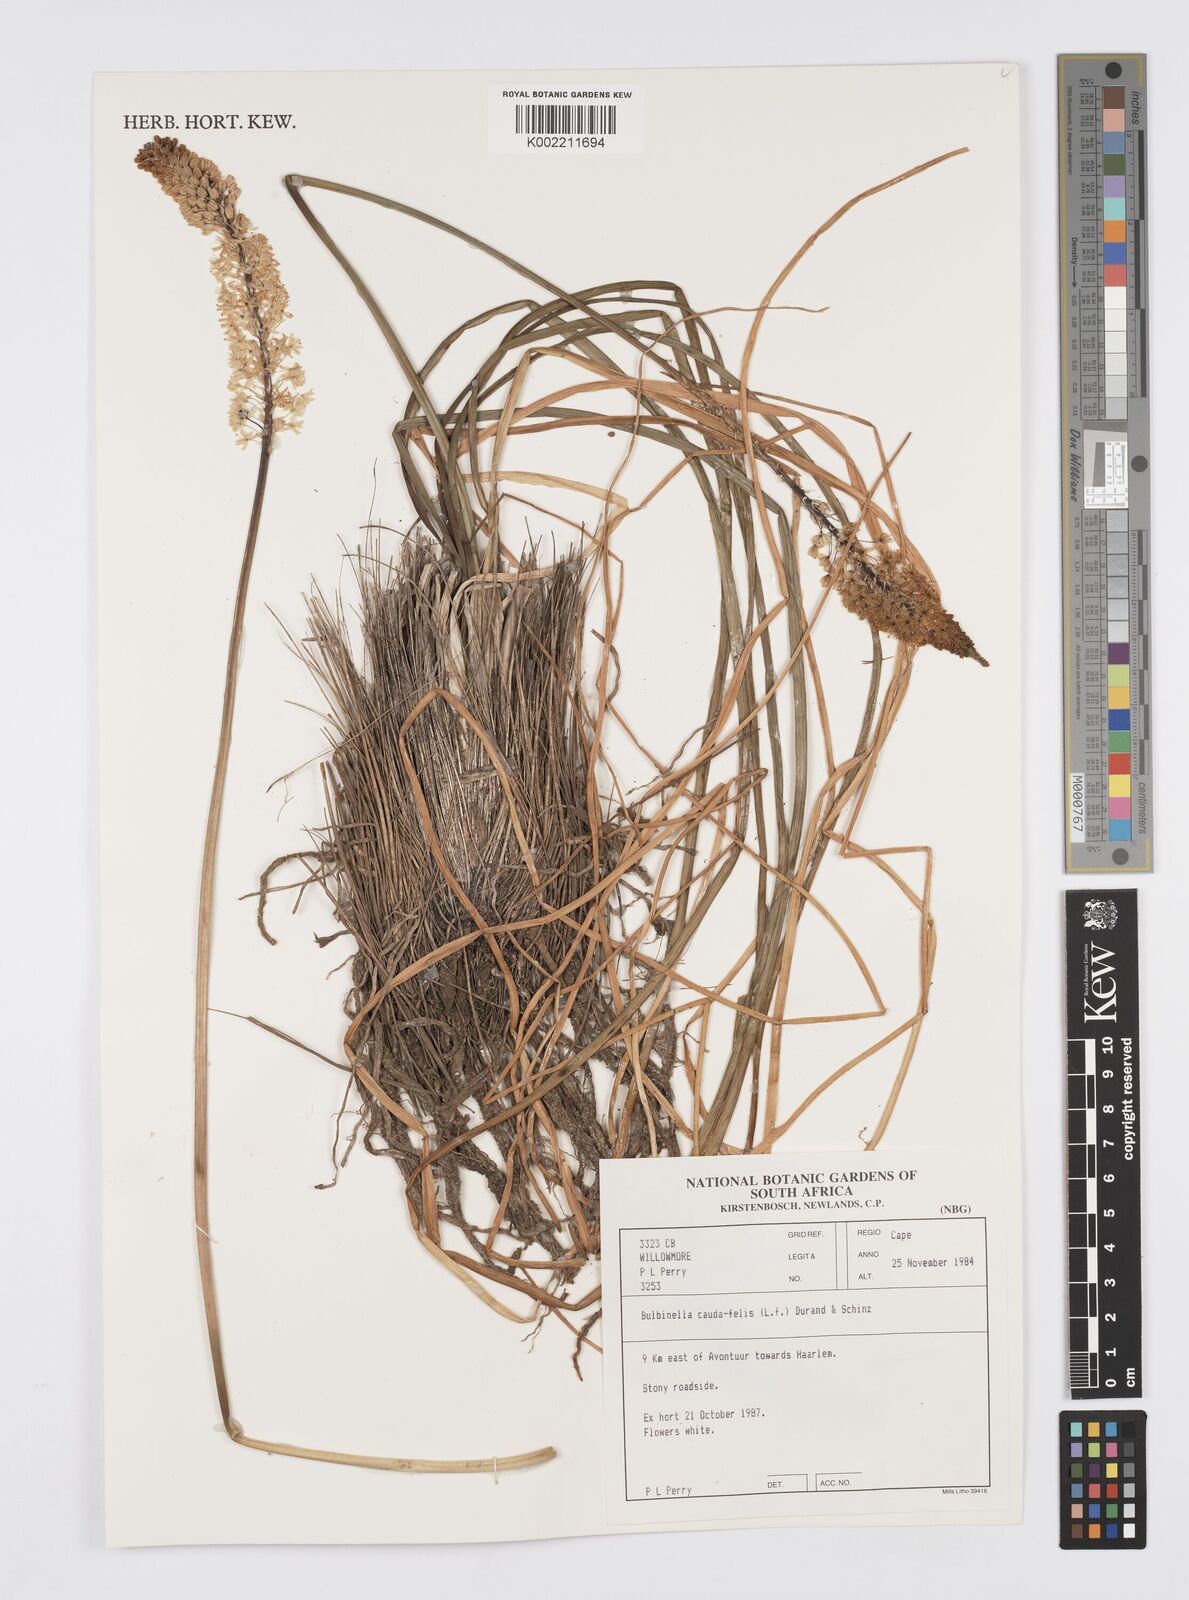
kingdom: Plantae
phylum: Tracheophyta
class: Liliopsida
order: Asparagales
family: Asphodelaceae
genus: Bulbinella
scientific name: Bulbinella cauda-felis
